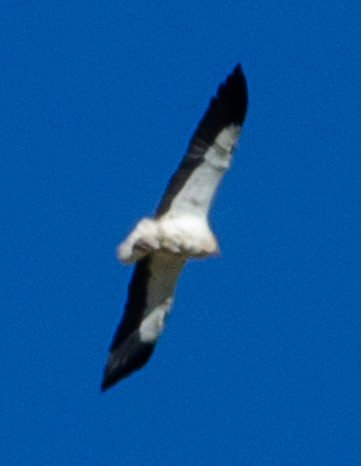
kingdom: Animalia
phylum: Chordata
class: Aves
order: Accipitriformes
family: Accipitridae
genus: Neophron
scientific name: Neophron percnopterus
